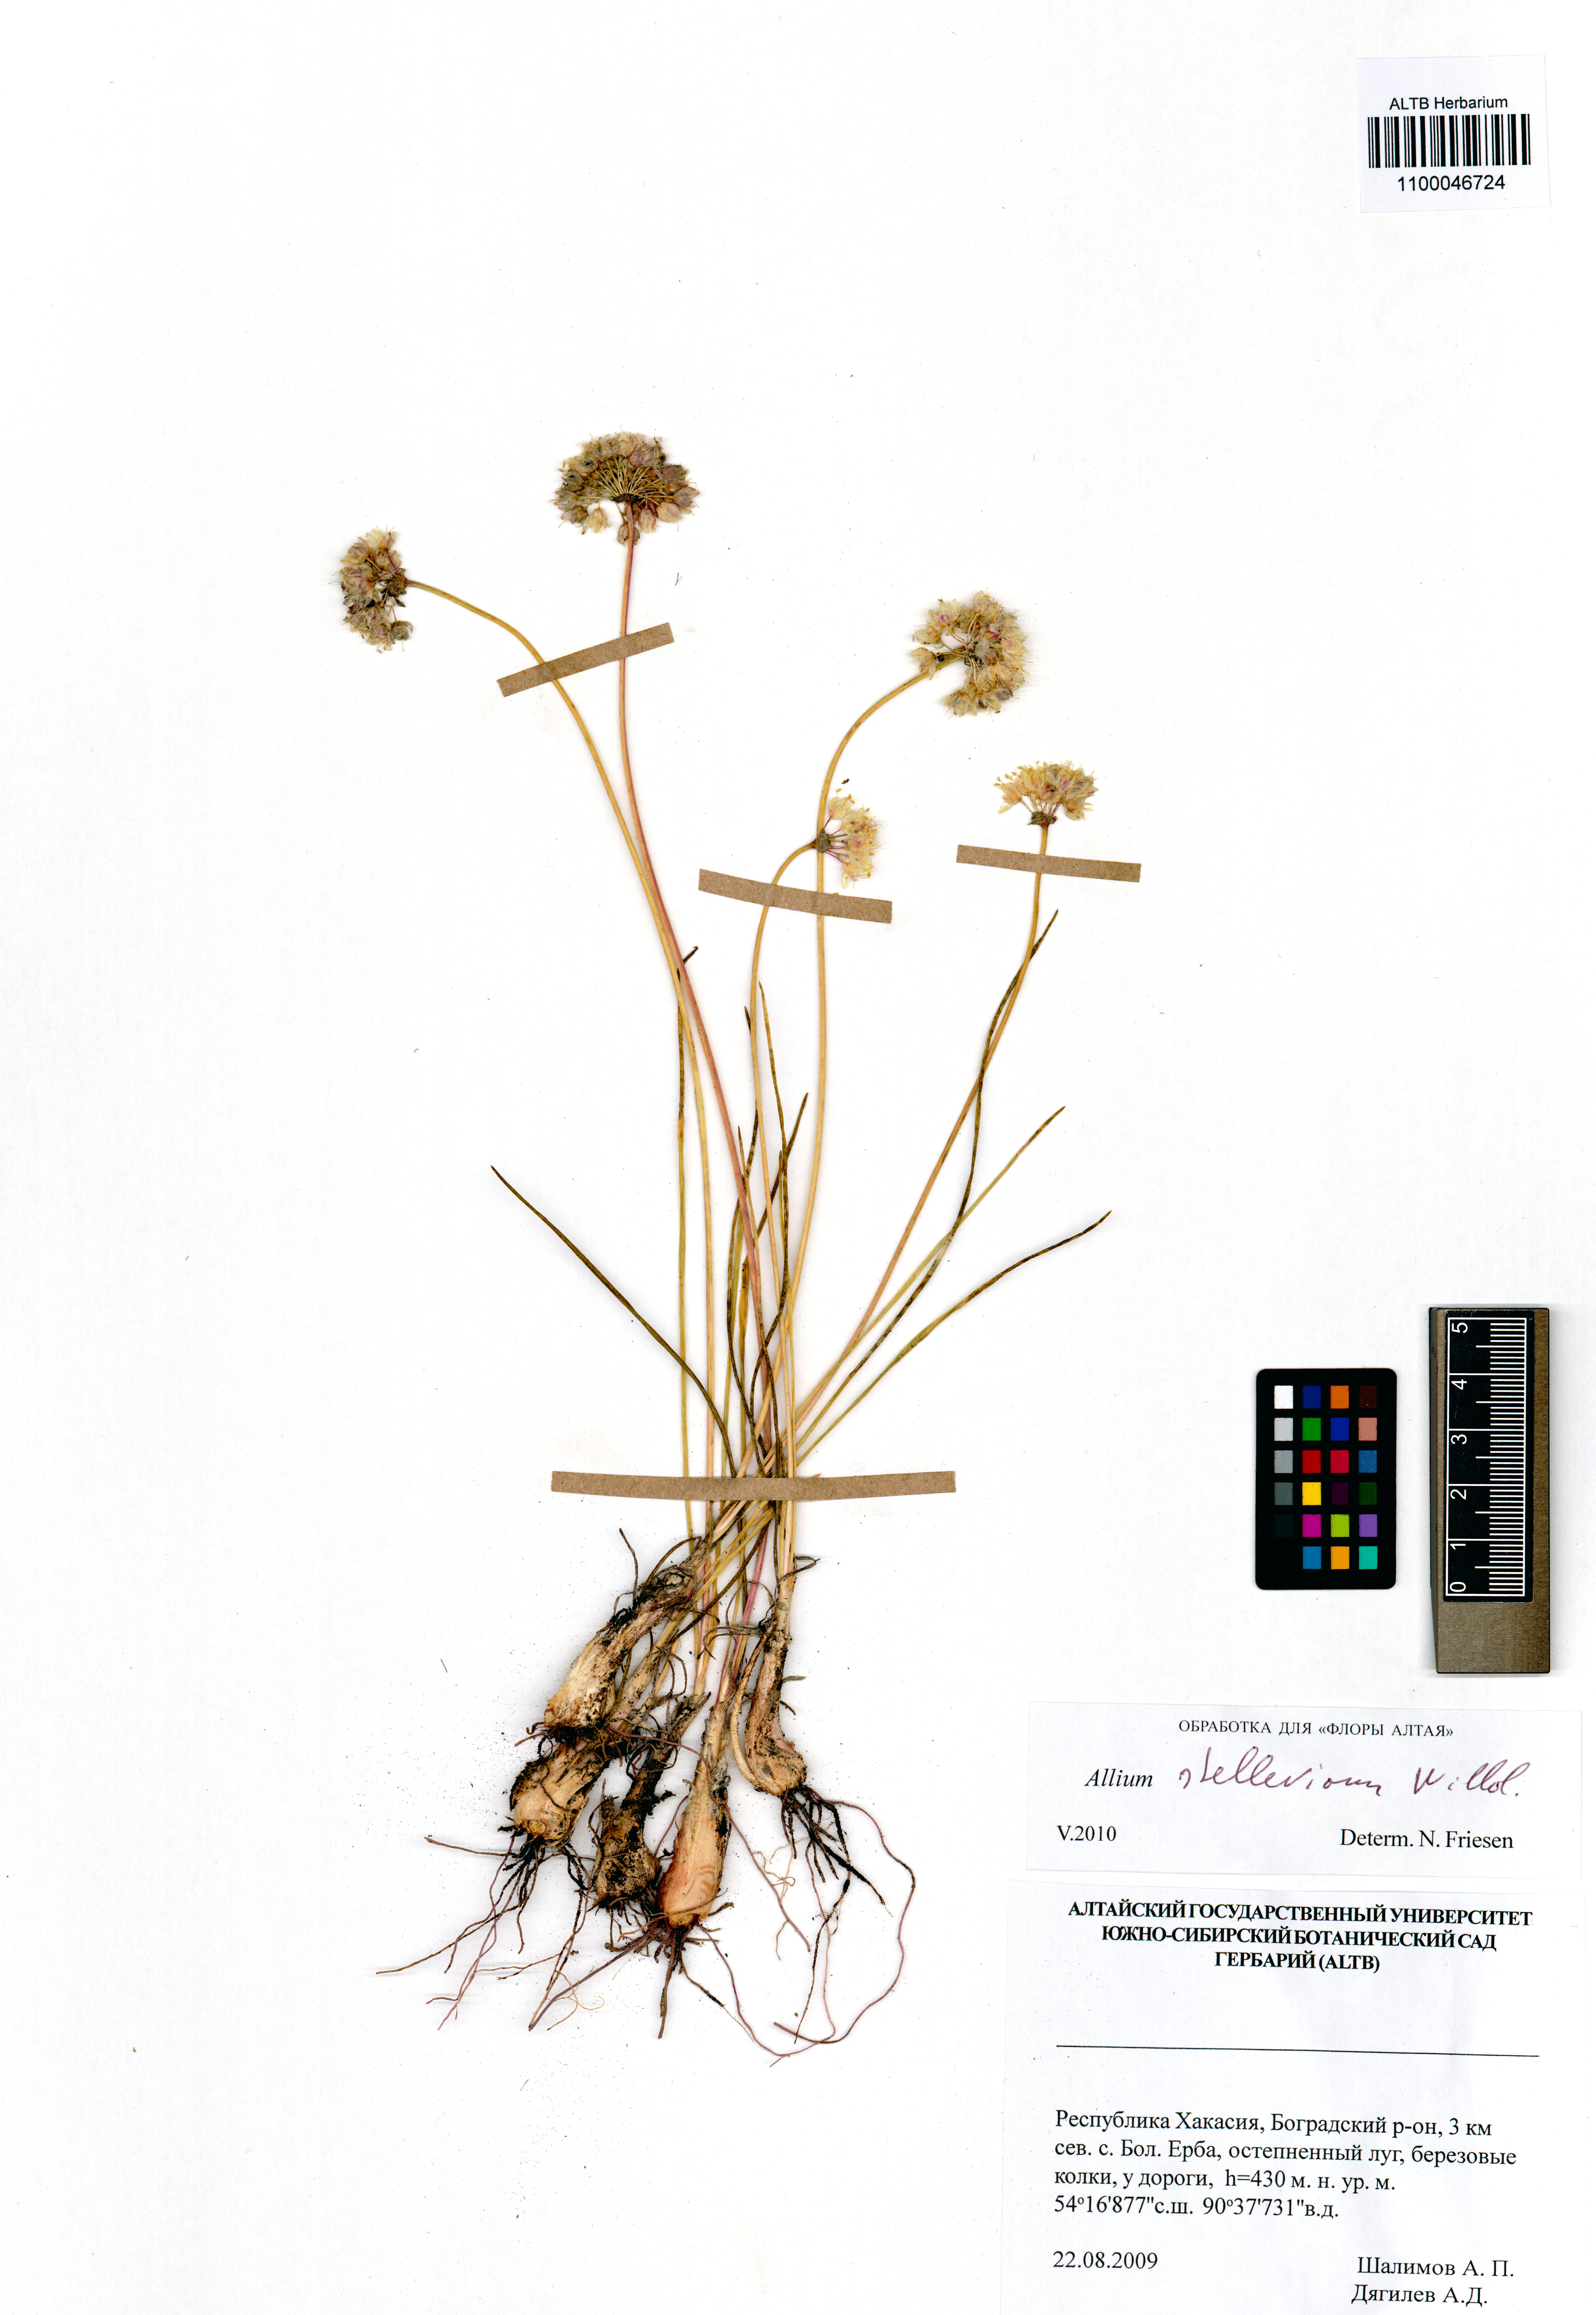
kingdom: Plantae
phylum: Tracheophyta
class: Liliopsida
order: Asparagales
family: Amaryllidaceae
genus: Allium
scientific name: Allium stellerianum
